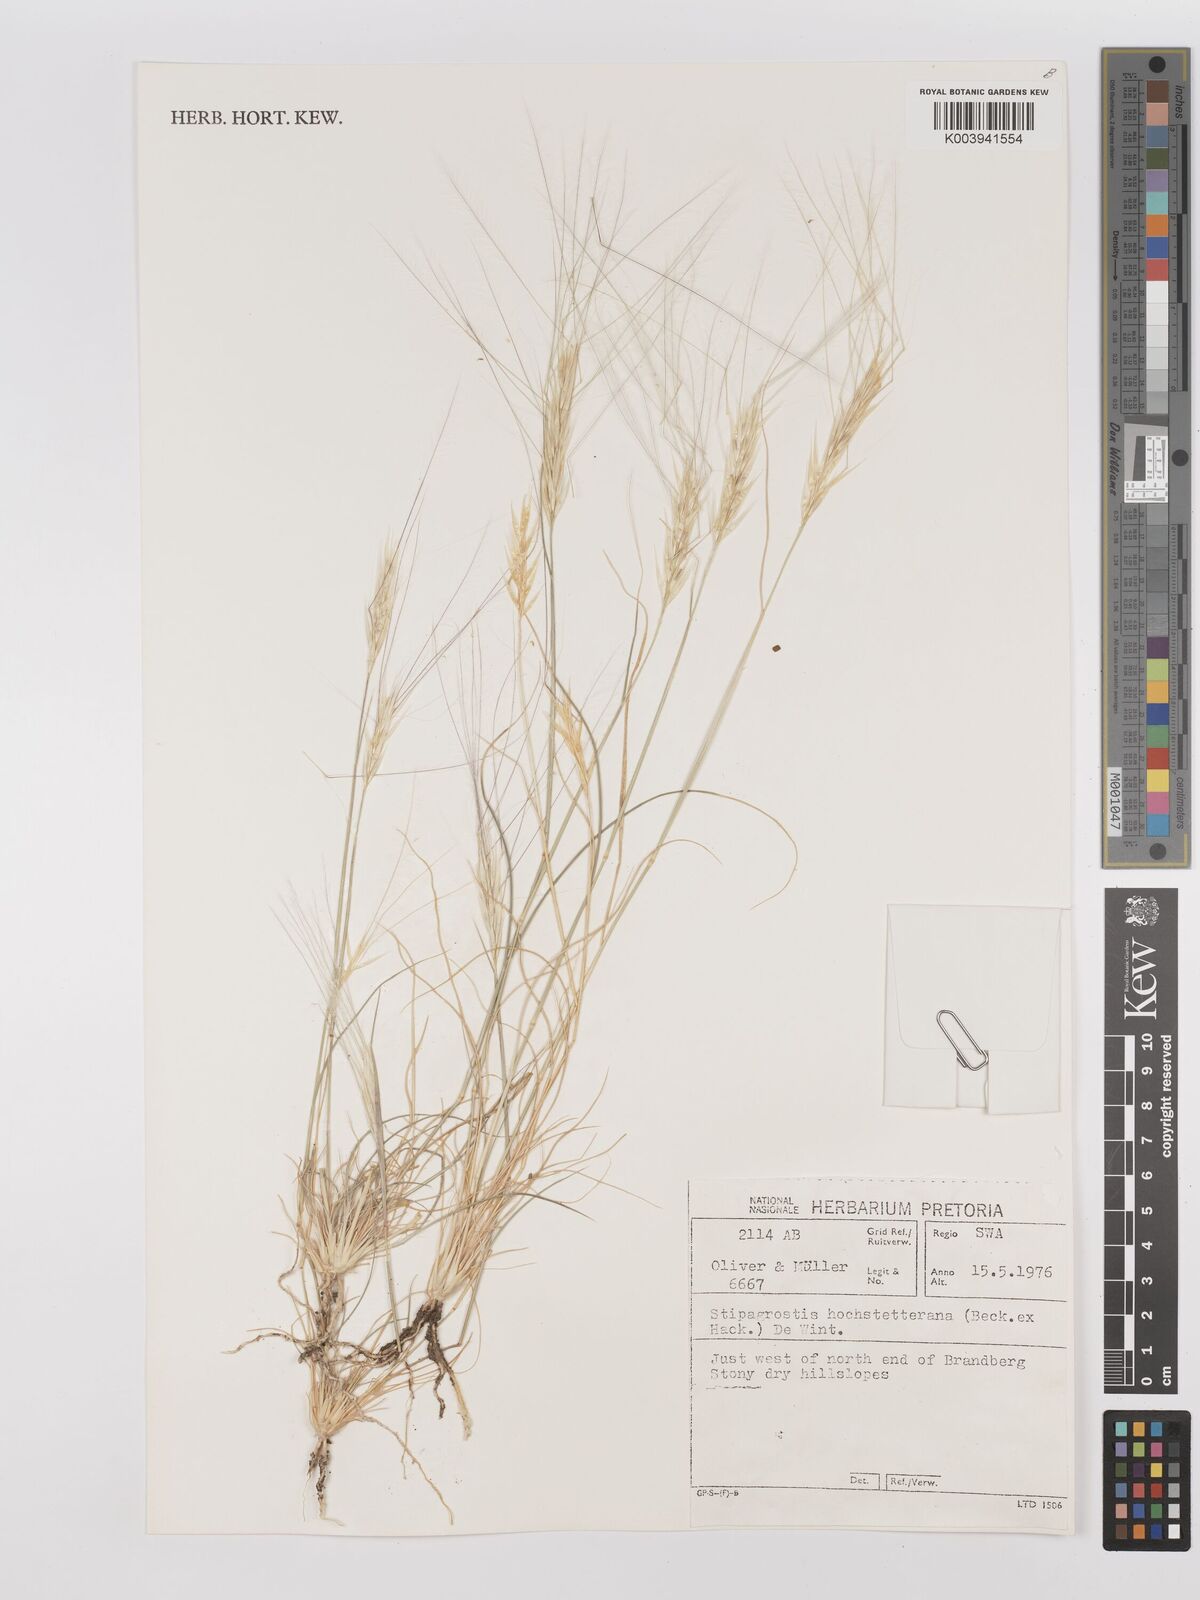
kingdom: Plantae
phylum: Tracheophyta
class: Liliopsida
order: Poales
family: Poaceae
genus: Stipagrostis
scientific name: Stipagrostis hochstetteriana
